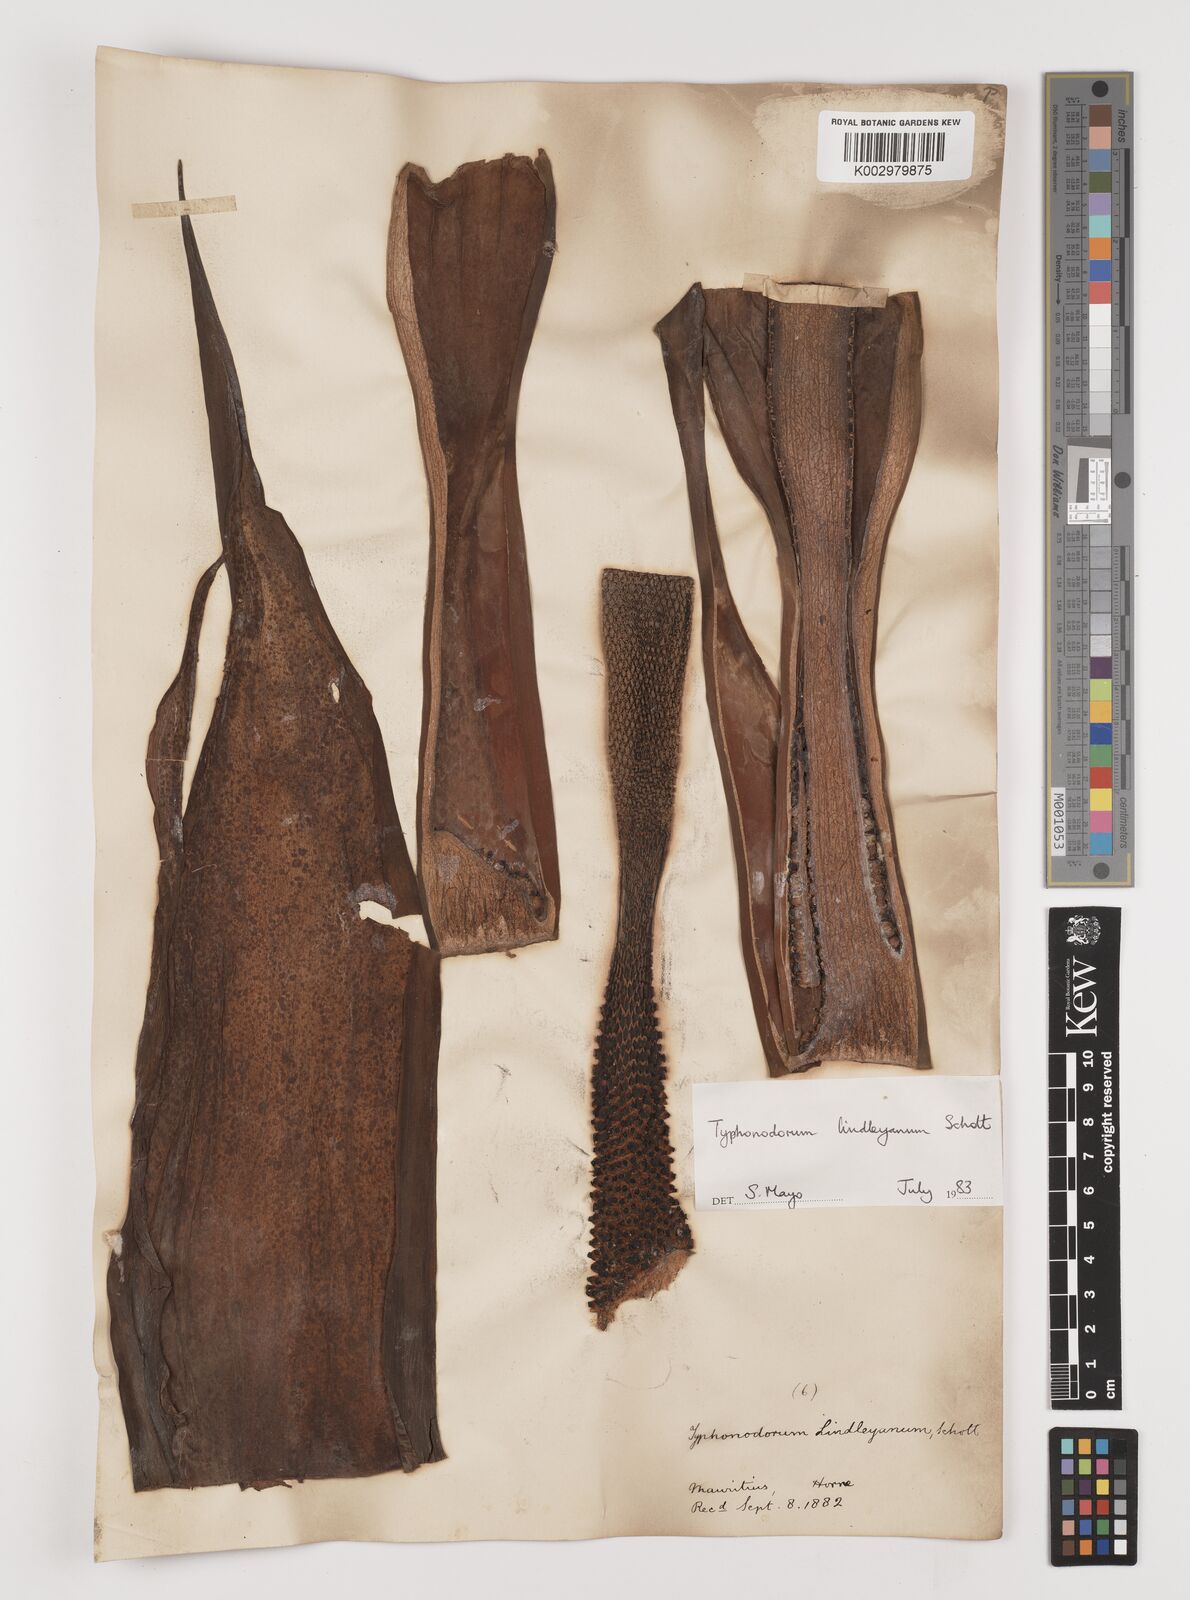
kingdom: Plantae
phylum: Tracheophyta
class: Liliopsida
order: Alismatales
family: Araceae
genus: Typhonodorum
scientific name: Typhonodorum lindleyanum
